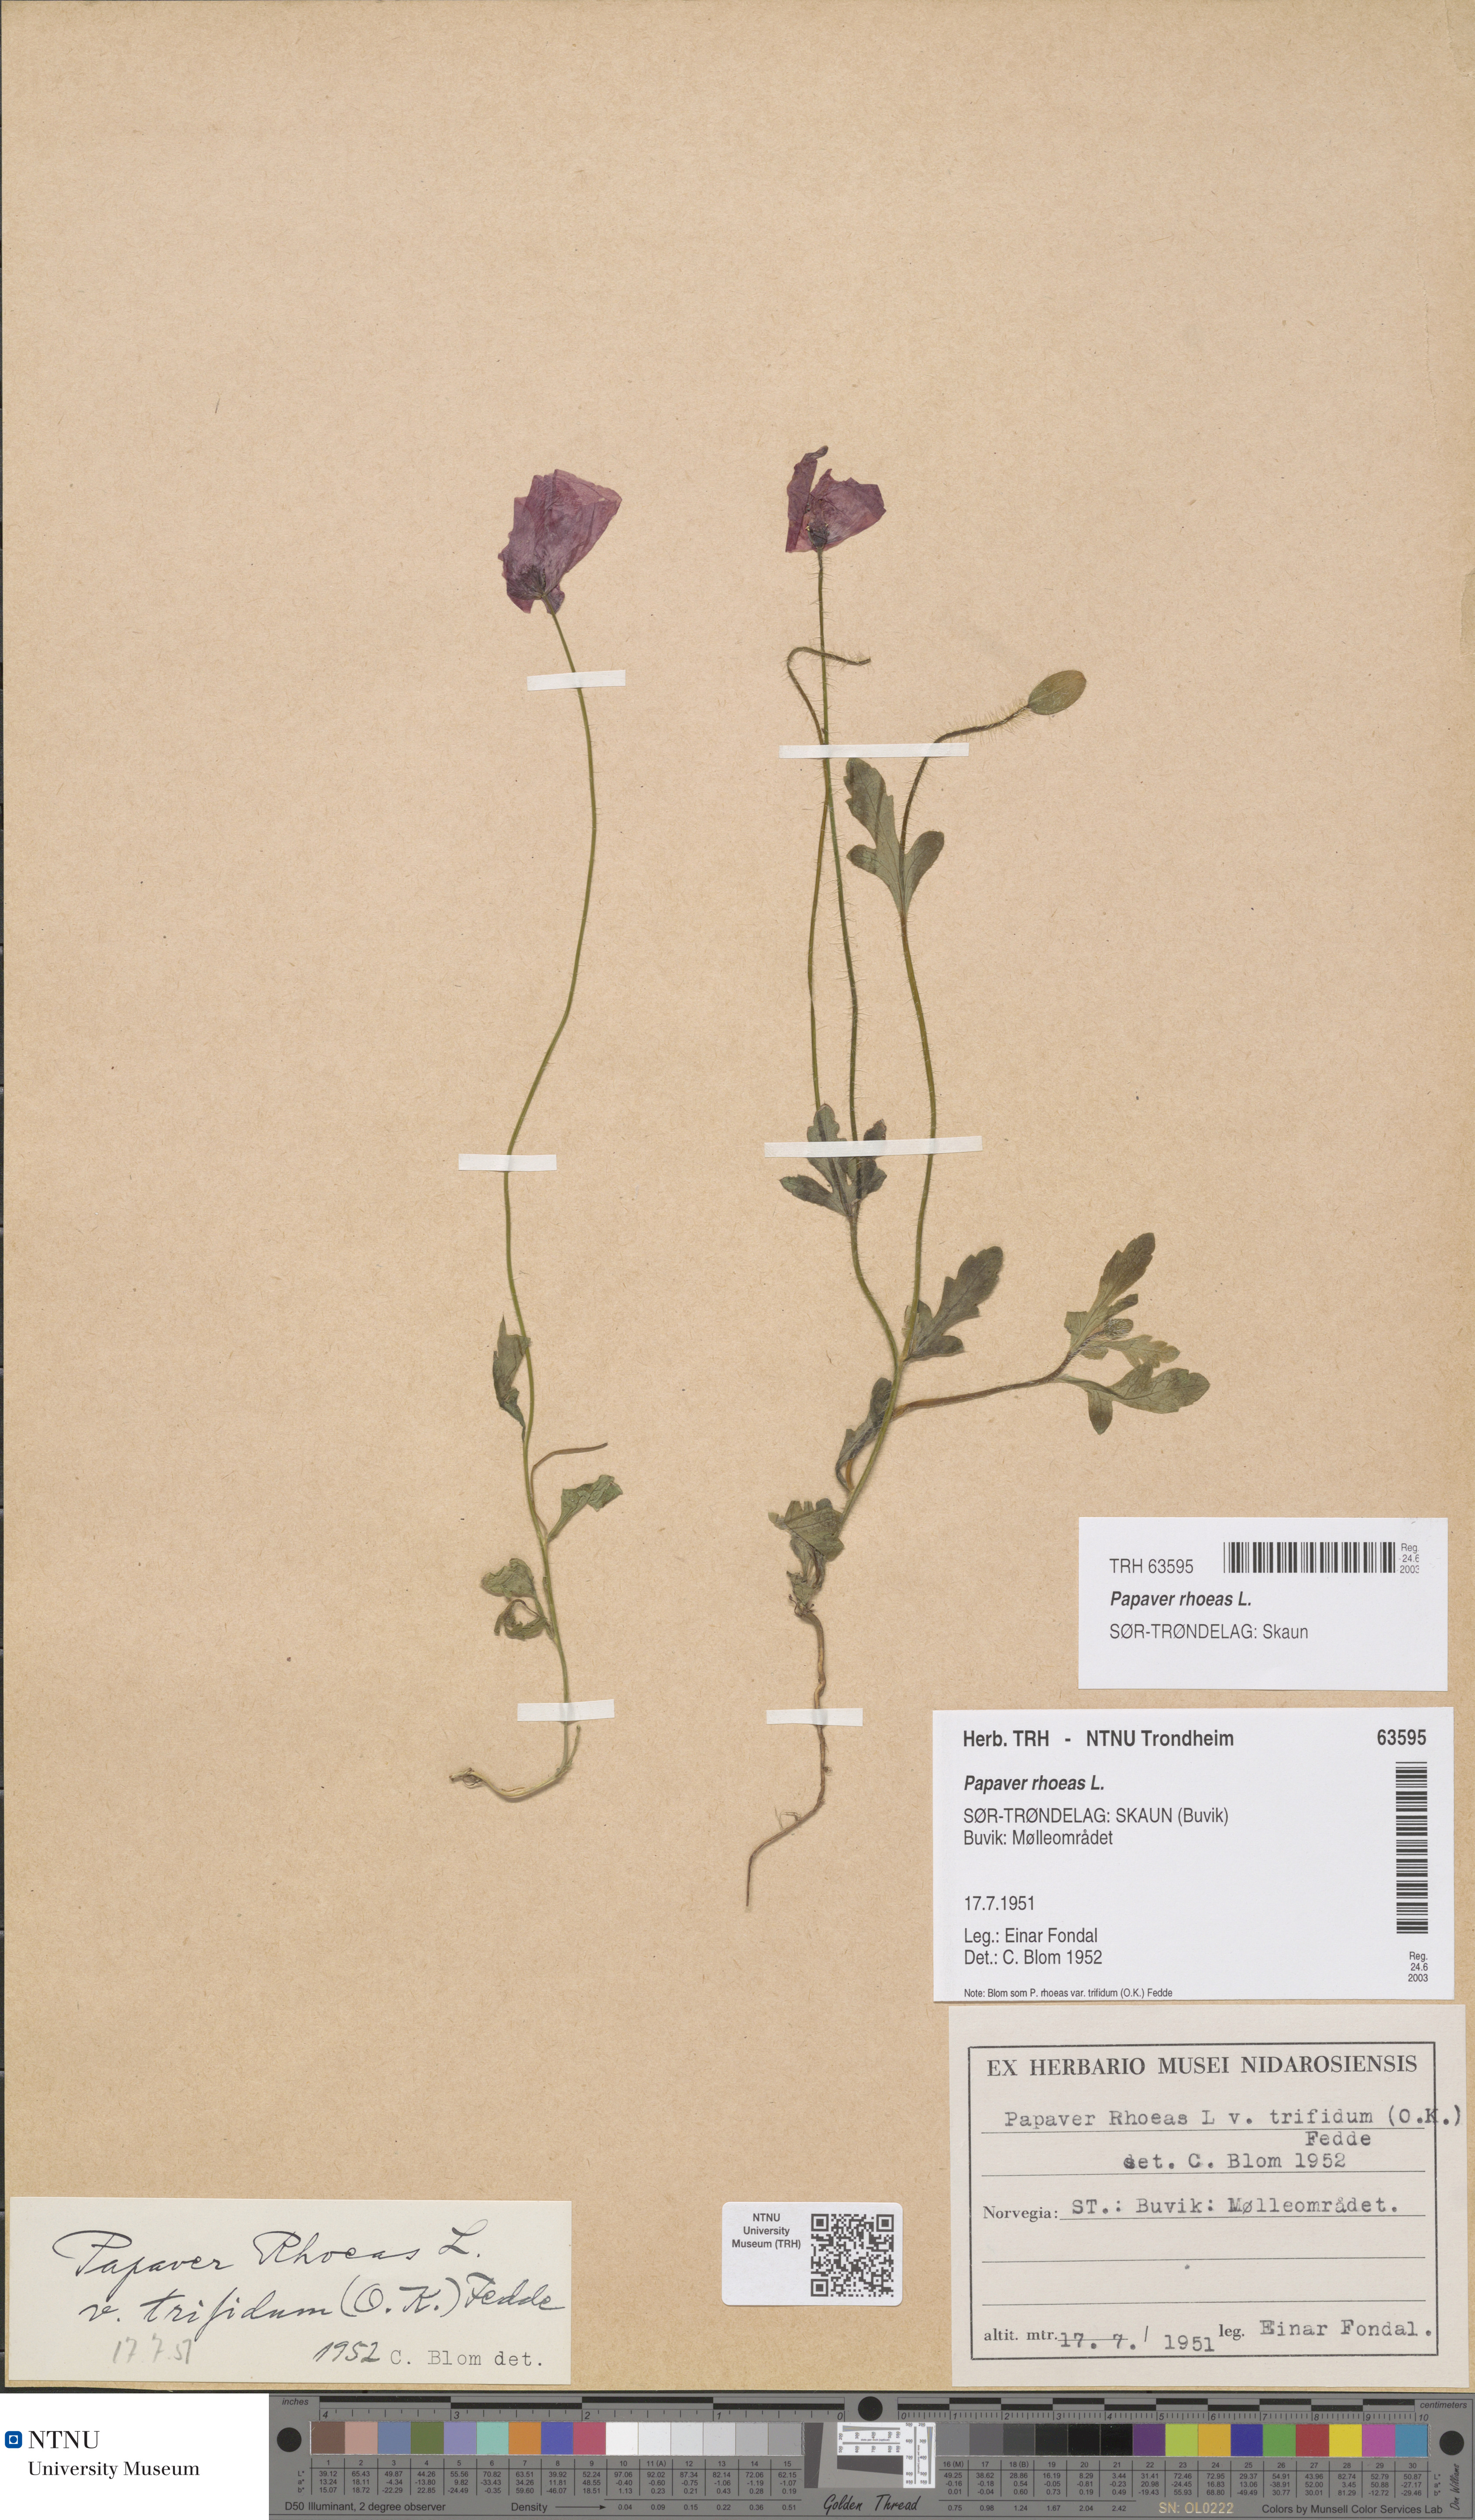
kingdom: Plantae
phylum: Tracheophyta
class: Magnoliopsida
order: Ranunculales
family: Papaveraceae
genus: Papaver
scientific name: Papaver rhoeas
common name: Corn poppy
